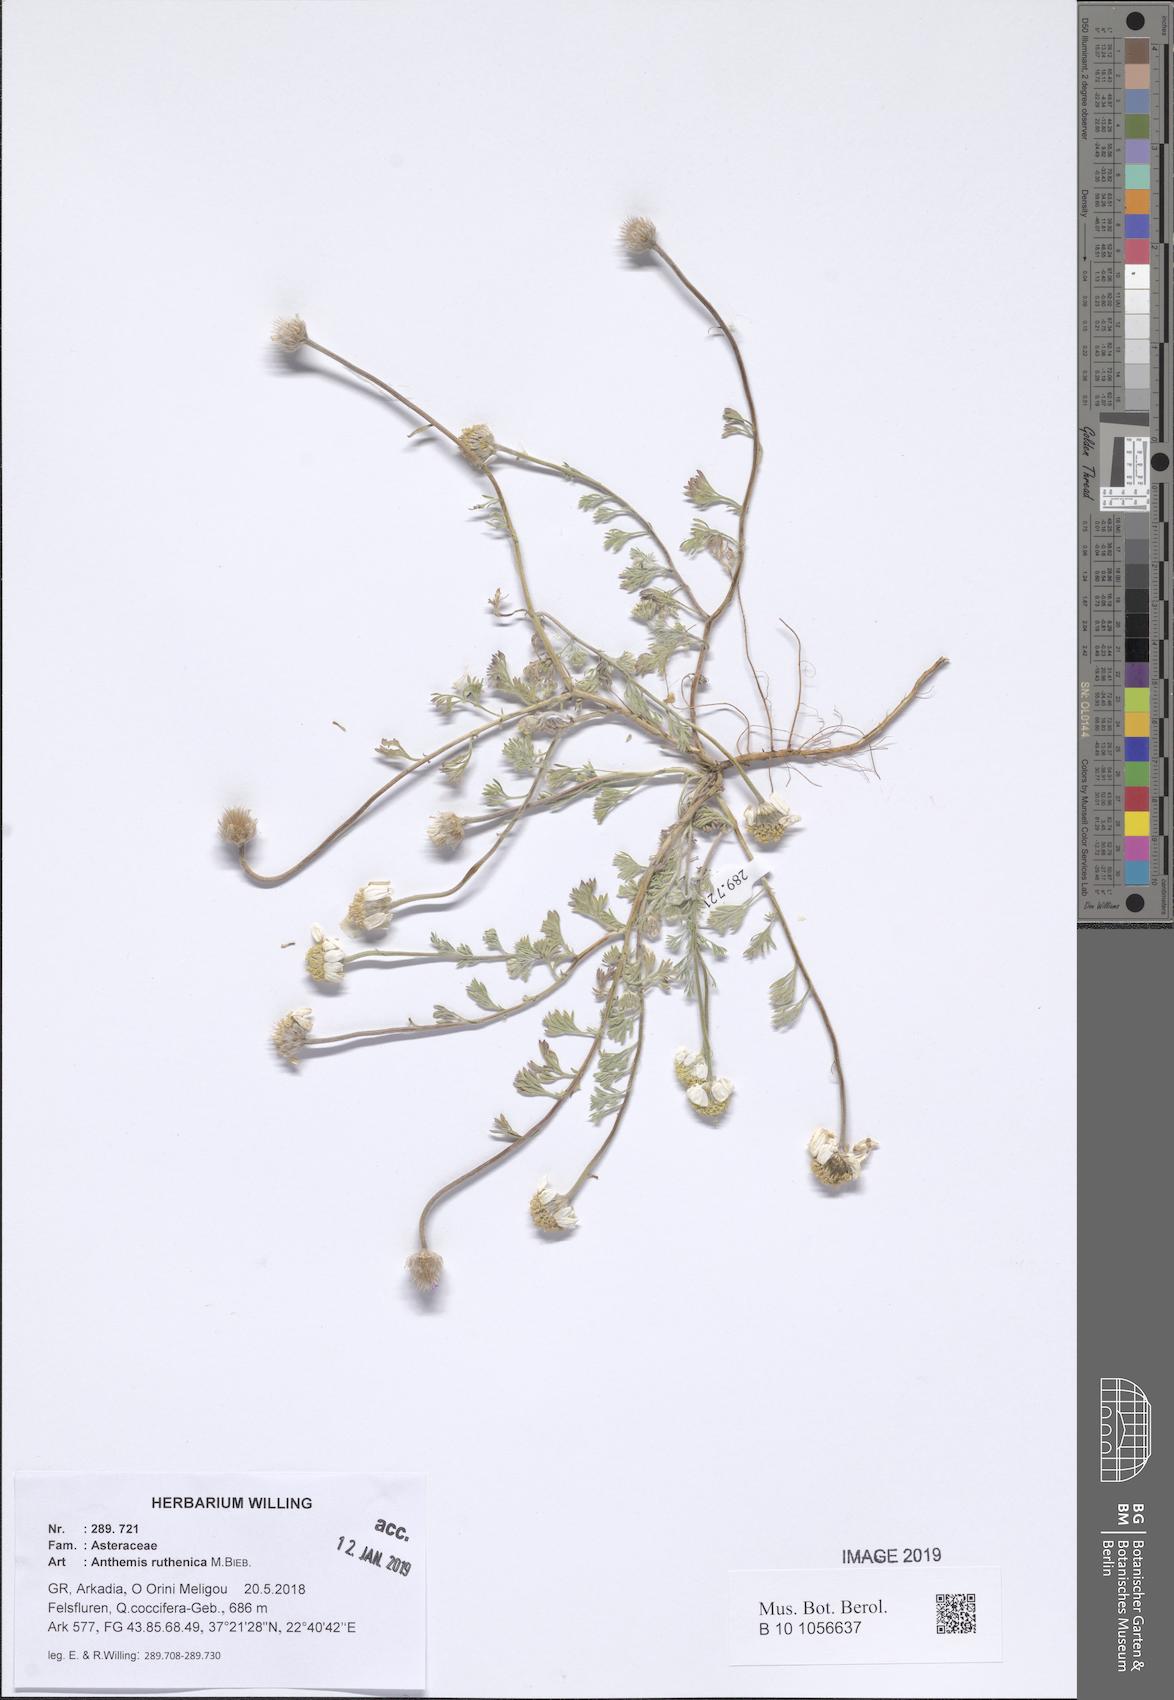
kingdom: Plantae
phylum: Tracheophyta
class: Magnoliopsida
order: Asterales
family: Asteraceae
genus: Anthemis
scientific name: Anthemis ruthenica
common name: Eastern chamomile
